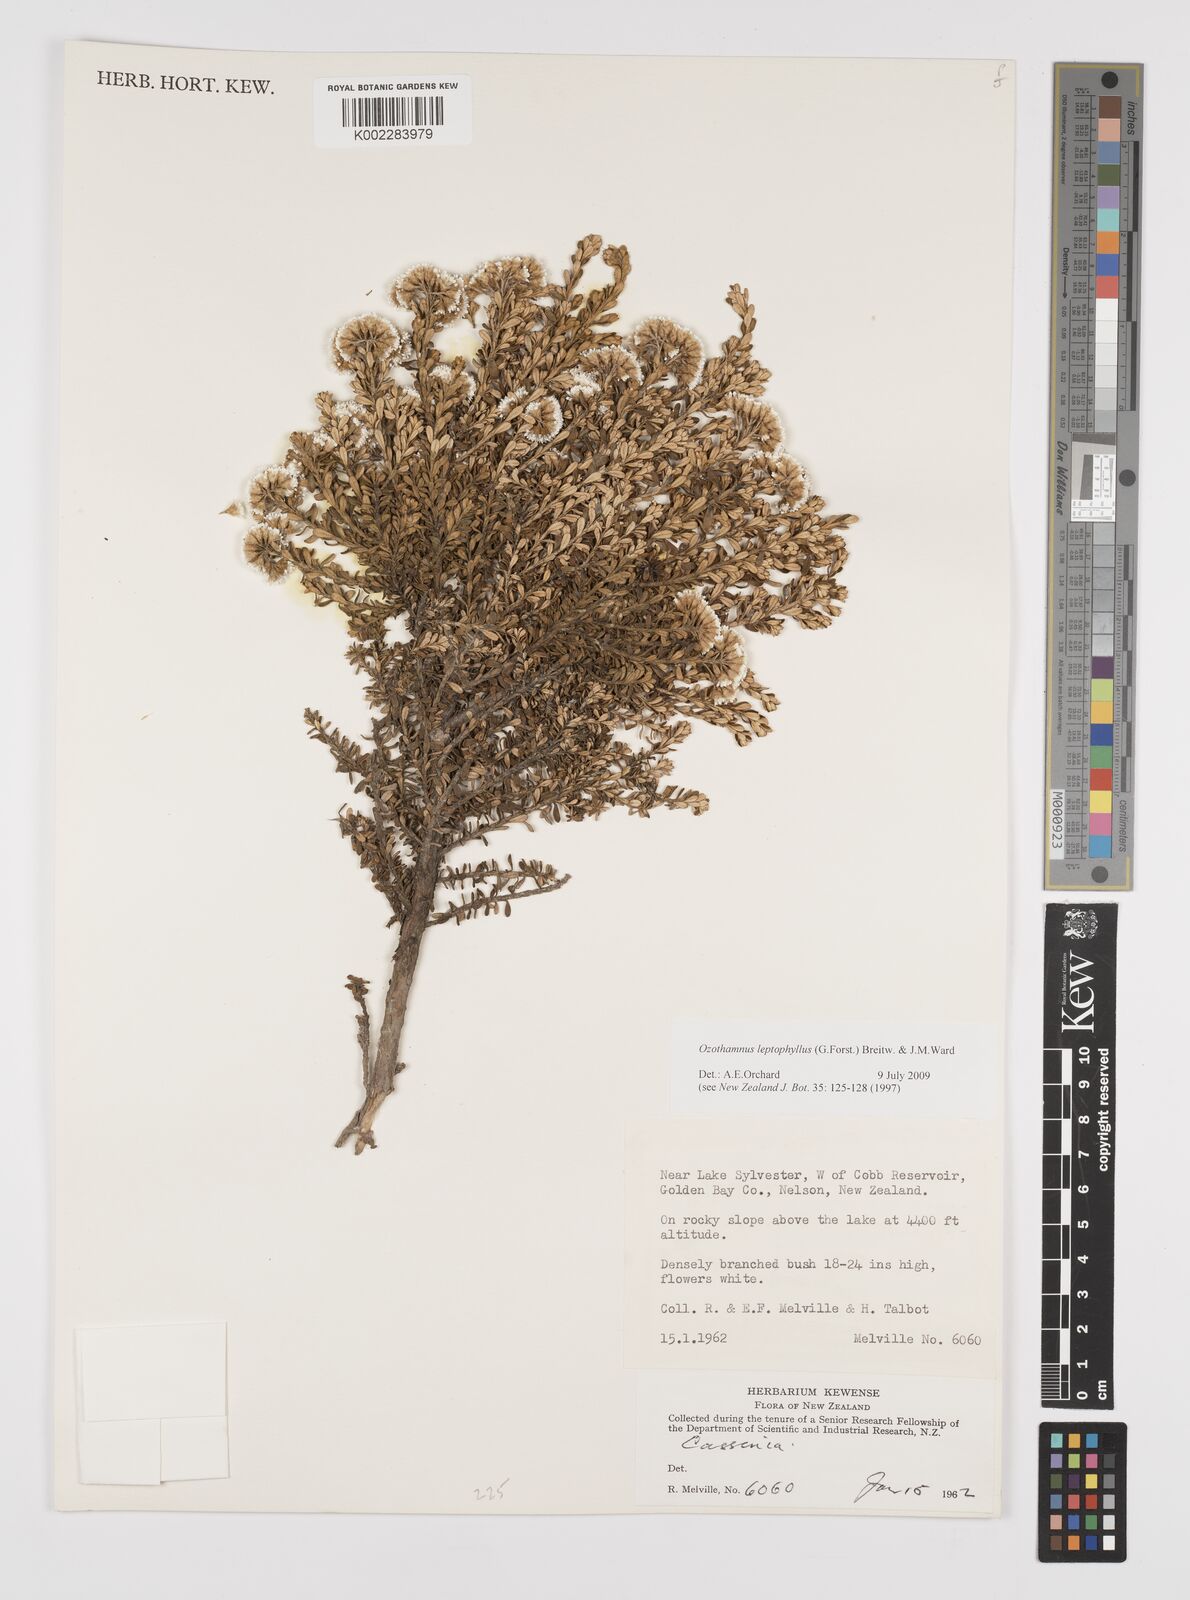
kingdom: Plantae
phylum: Tracheophyta
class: Magnoliopsida
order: Asterales
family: Asteraceae
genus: Ozothamnus
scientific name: Ozothamnus
